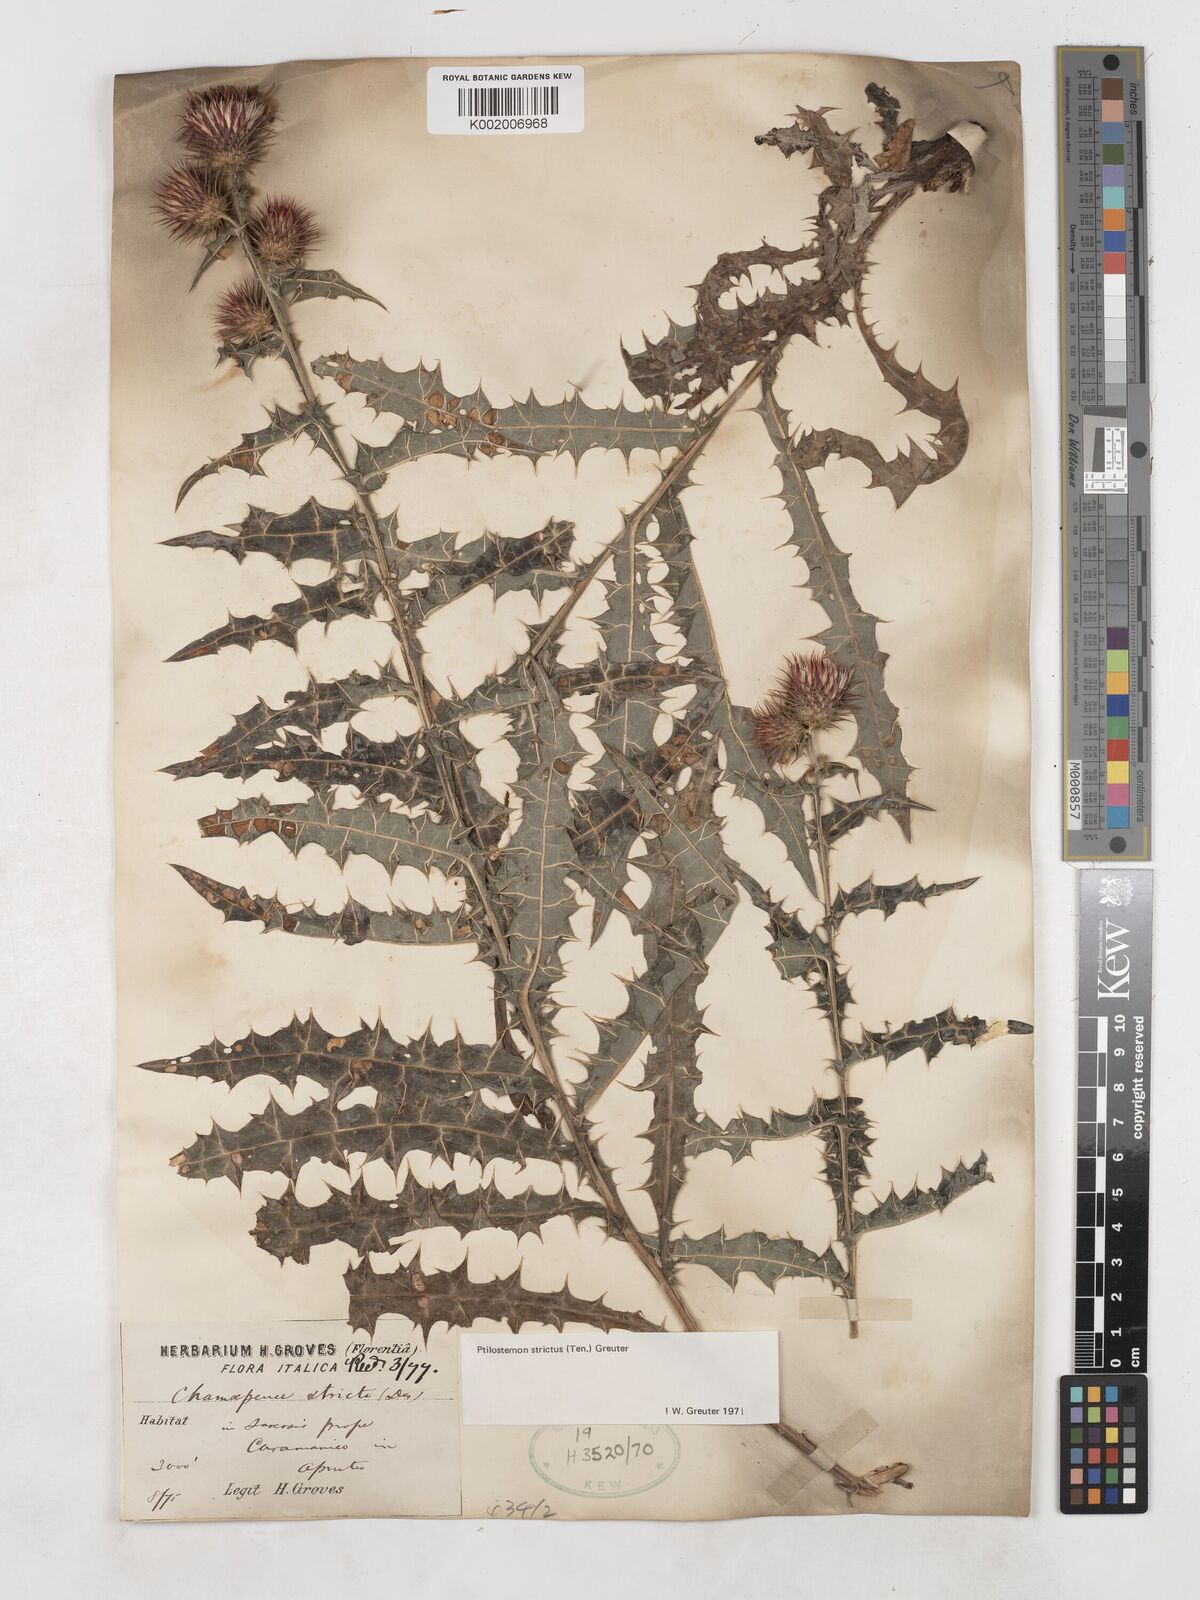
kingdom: Plantae
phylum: Tracheophyta
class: Magnoliopsida
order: Asterales
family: Asteraceae
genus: Ptilostemon
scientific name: Ptilostemon strictus
